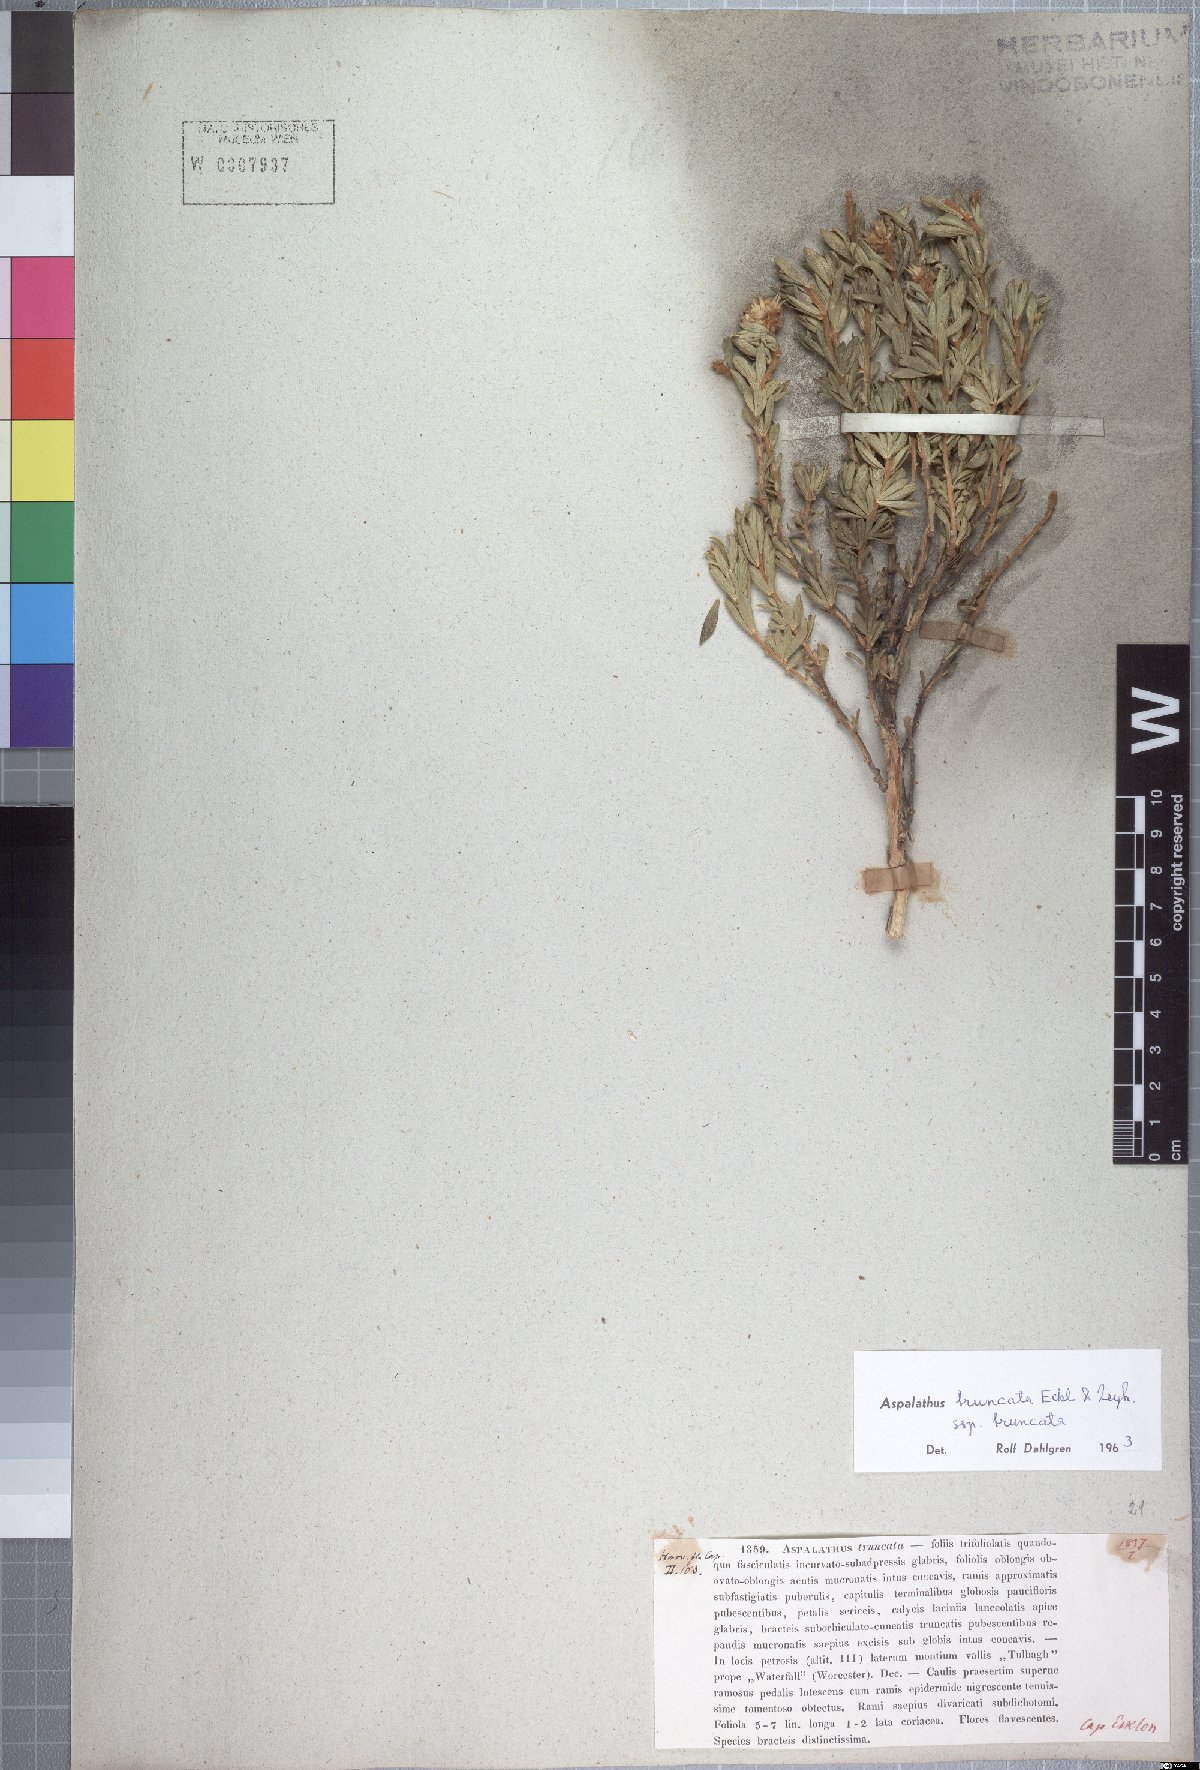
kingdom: Plantae
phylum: Tracheophyta
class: Magnoliopsida
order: Fabales
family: Fabaceae
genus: Aspalathus
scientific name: Aspalathus truncata
